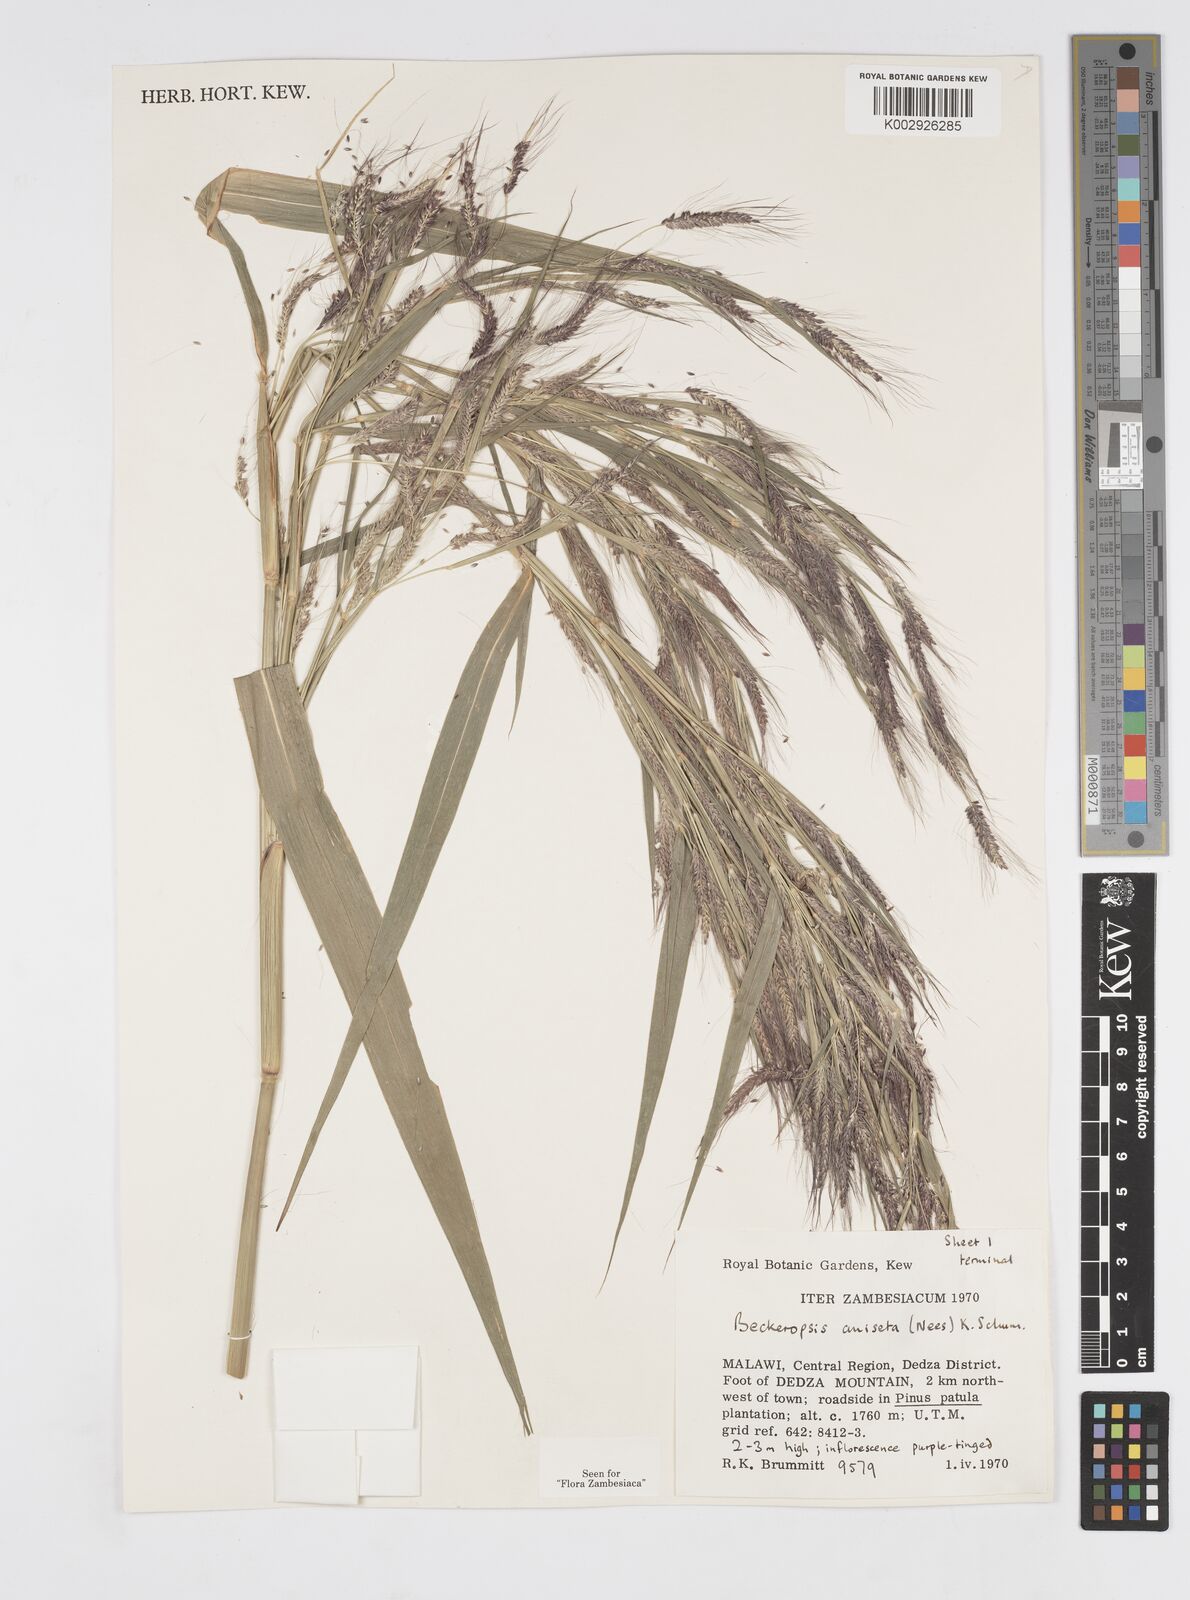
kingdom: Plantae
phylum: Tracheophyta
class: Liliopsida
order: Poales
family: Poaceae
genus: Cenchrus
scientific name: Cenchrus unisetus
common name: Natal grass
